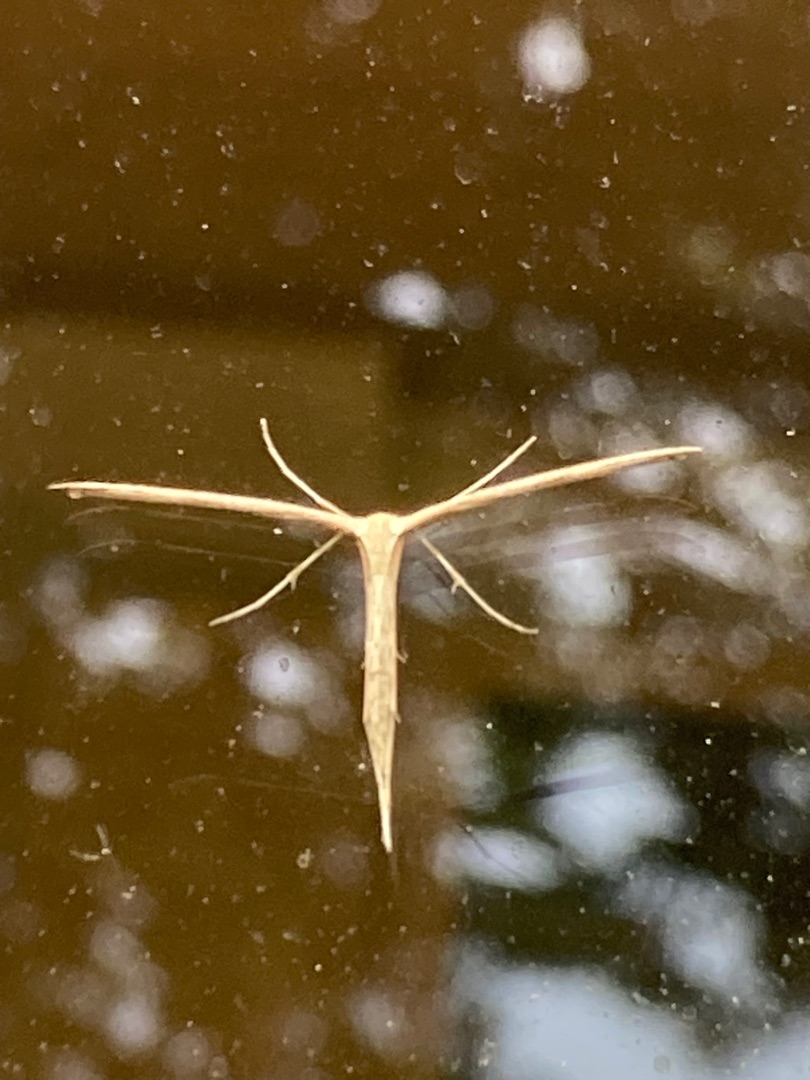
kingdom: Animalia
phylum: Arthropoda
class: Insecta
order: Lepidoptera
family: Pterophoridae
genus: Emmelina
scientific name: Emmelina monodactyla
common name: Snerlefjermøl
